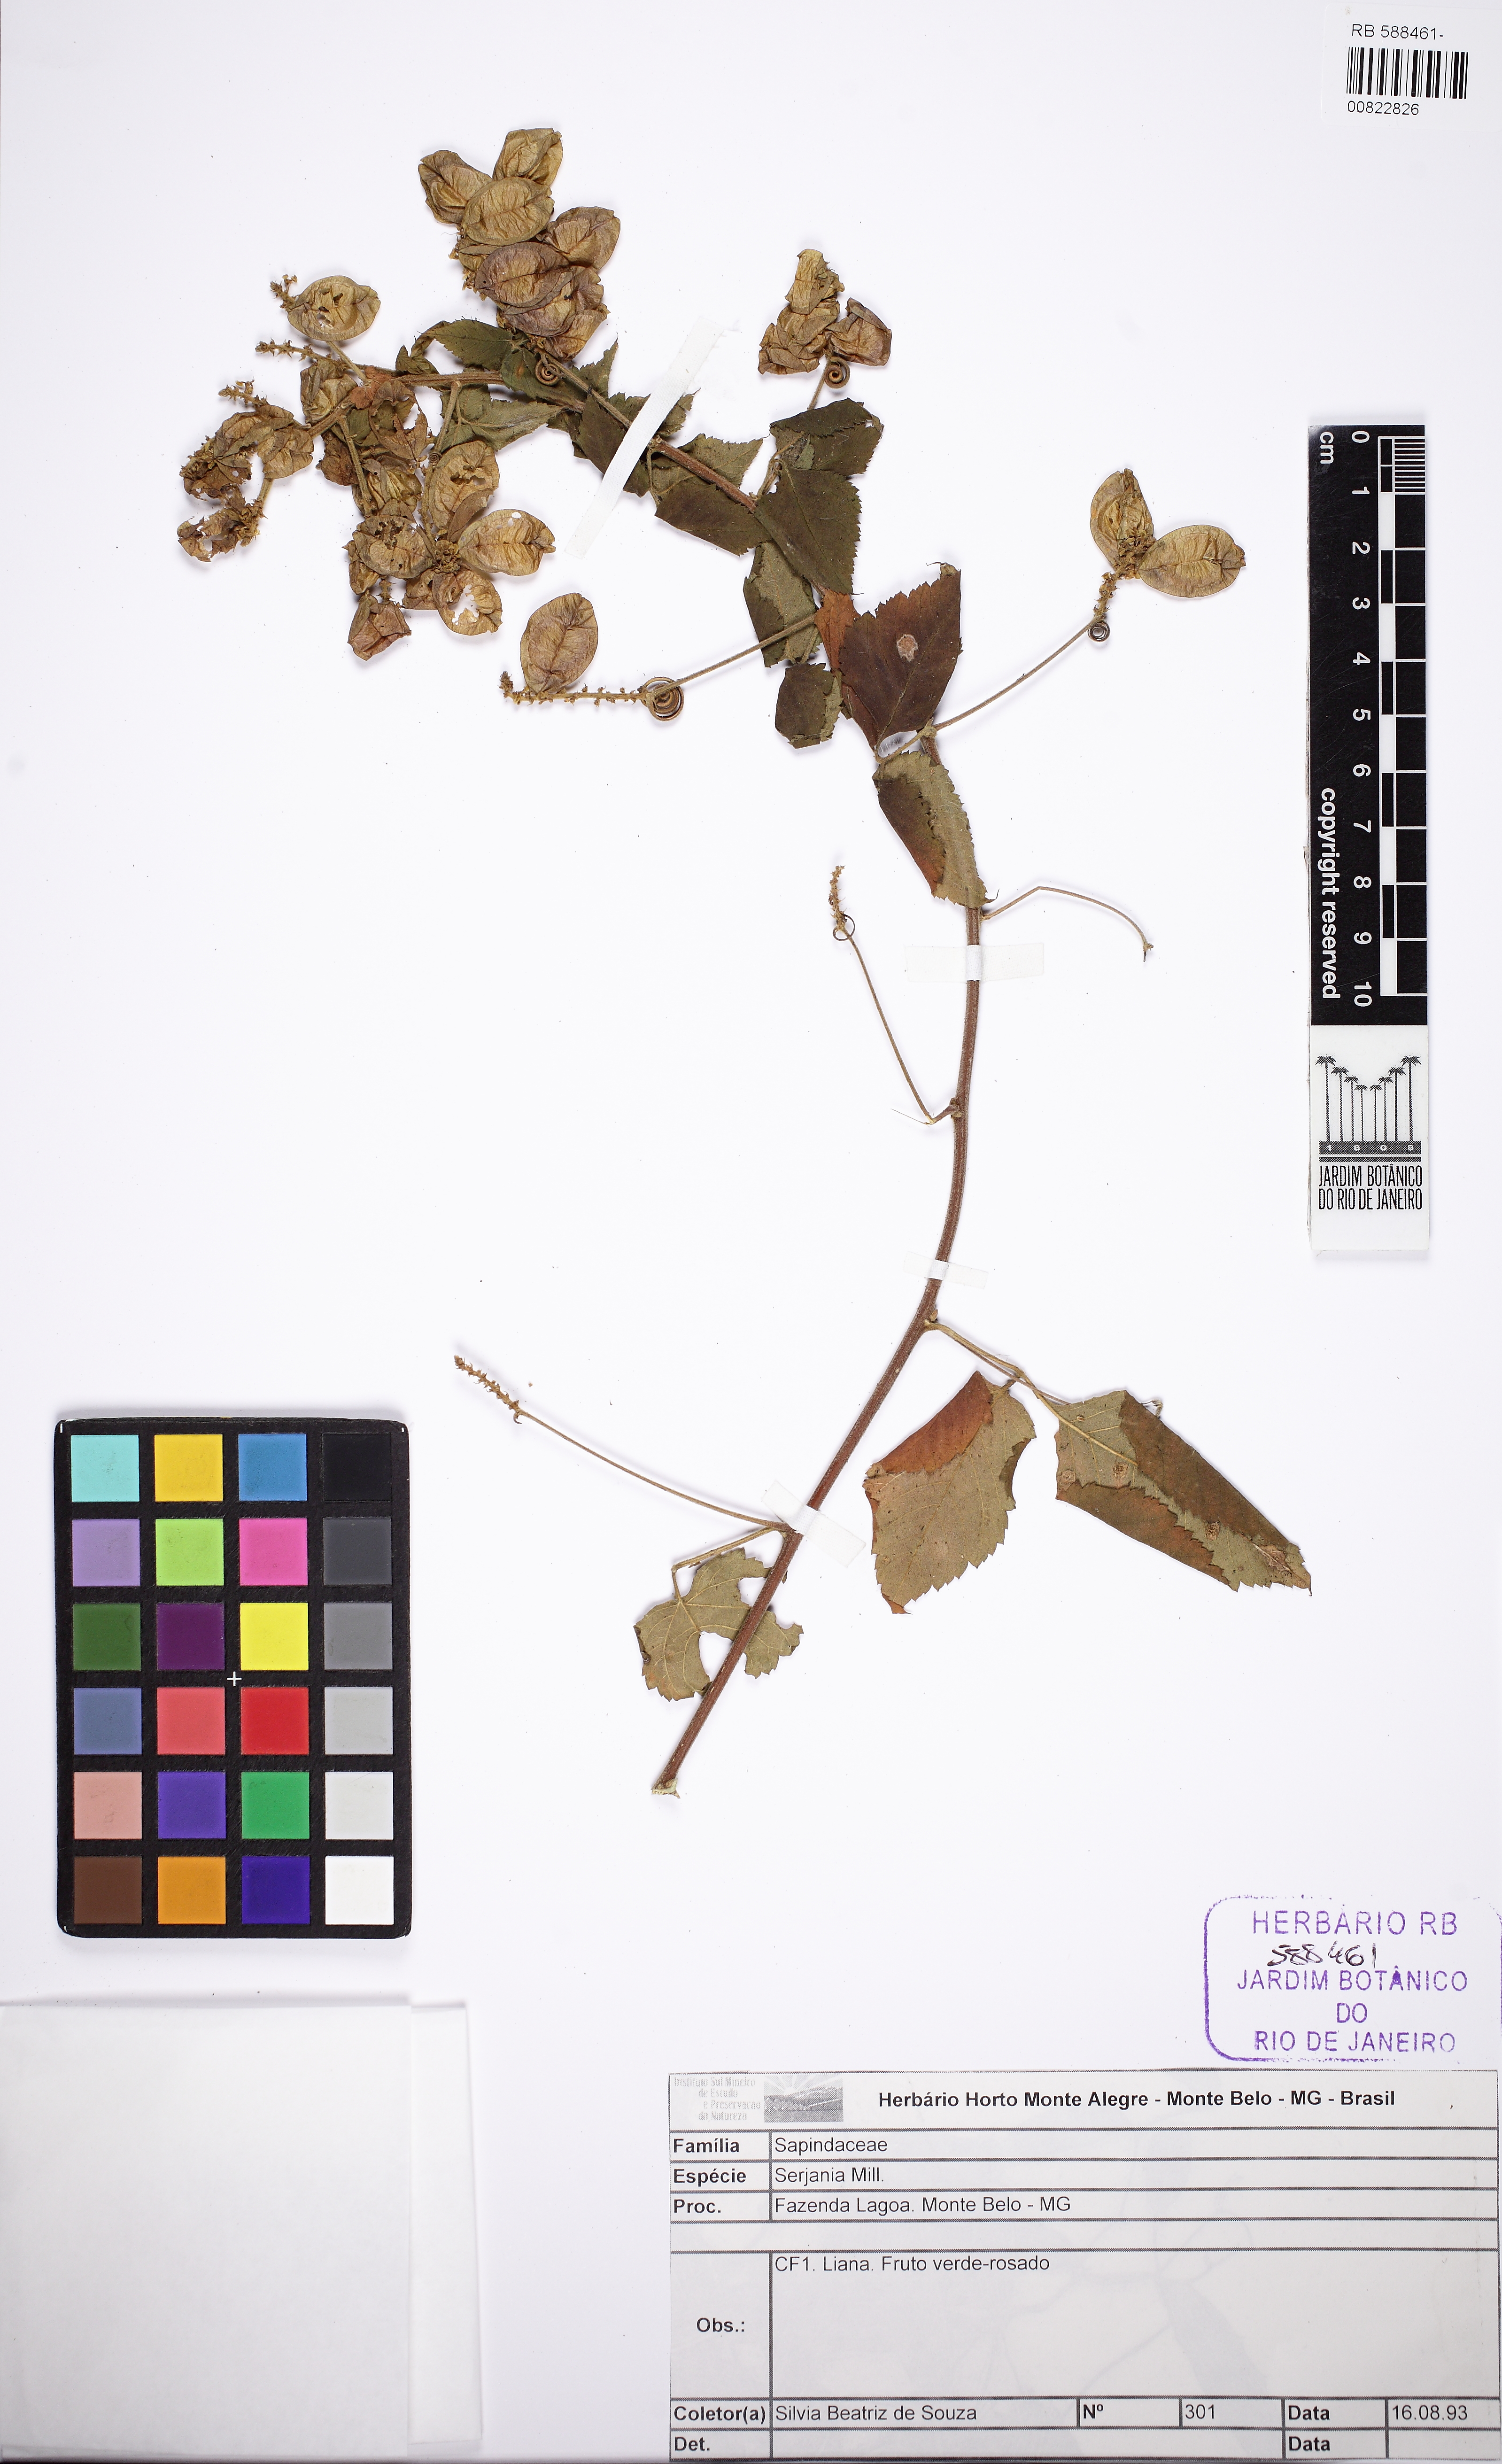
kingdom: Plantae
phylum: Tracheophyta
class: Magnoliopsida
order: Sapindales
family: Sapindaceae
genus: Urvillea
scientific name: Urvillea rufescens
